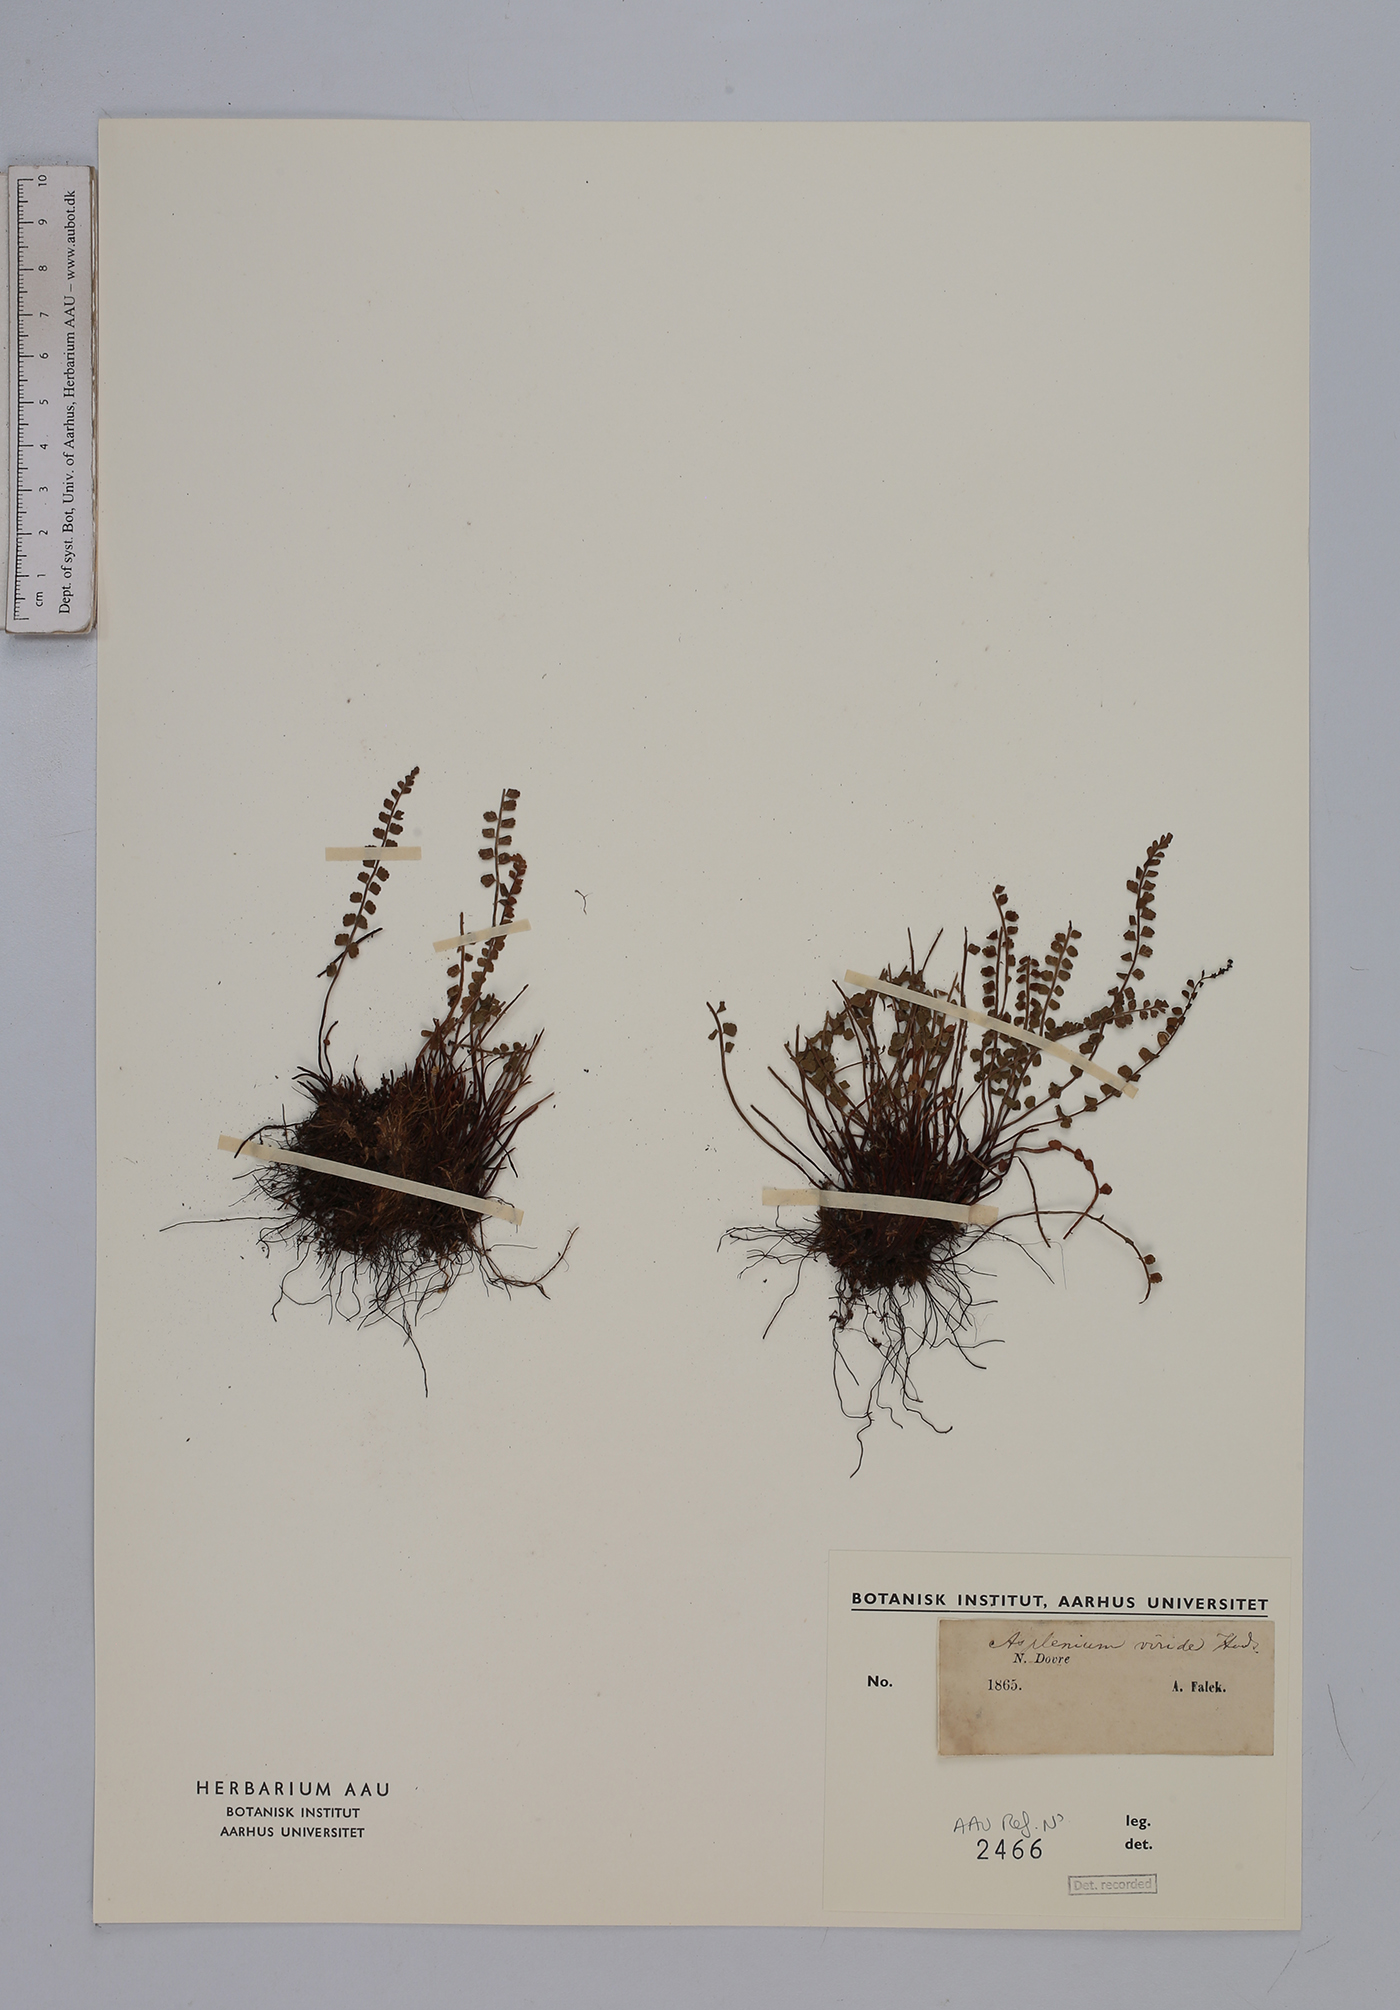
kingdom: Plantae
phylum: Tracheophyta
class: Polypodiopsida
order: Polypodiales
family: Aspleniaceae
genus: Asplenium
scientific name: Asplenium viride
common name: Green spleenwort
